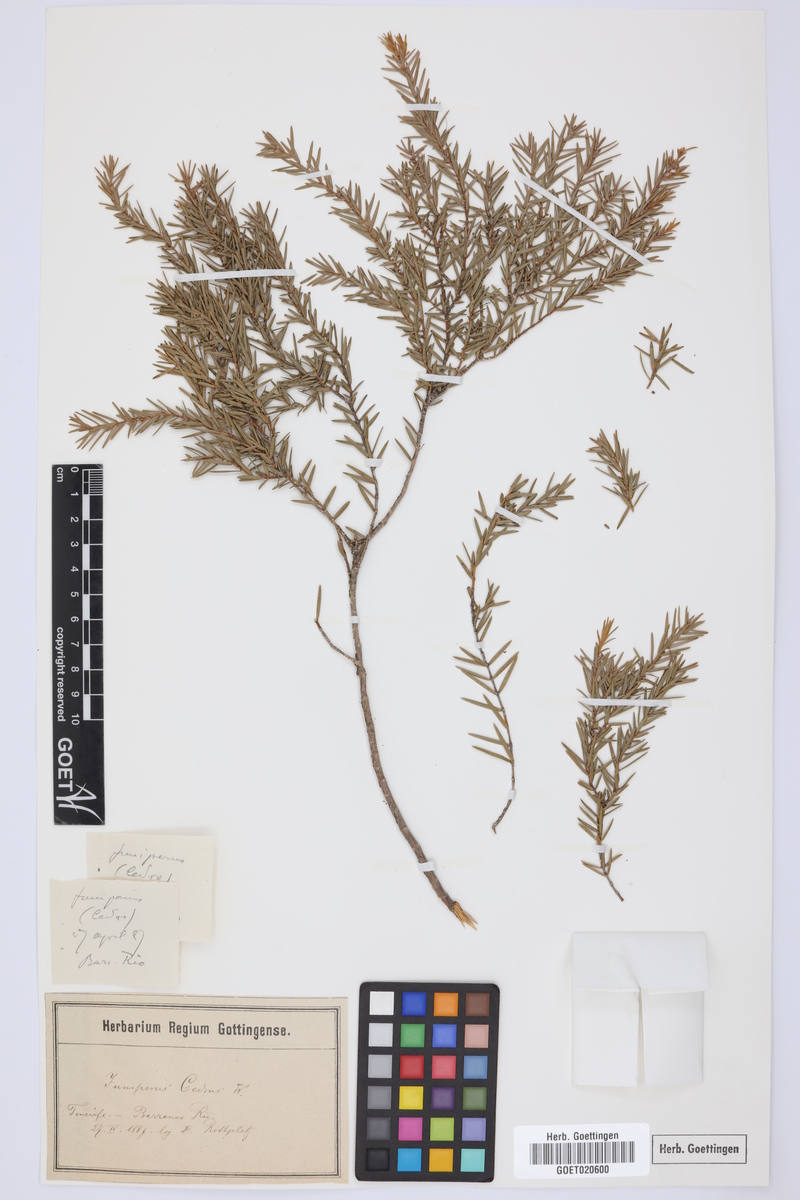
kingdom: Plantae
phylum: Tracheophyta
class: Pinopsida
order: Pinales
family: Cupressaceae
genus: Juniperus
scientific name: Juniperus cedrus
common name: Canary islands juniper
